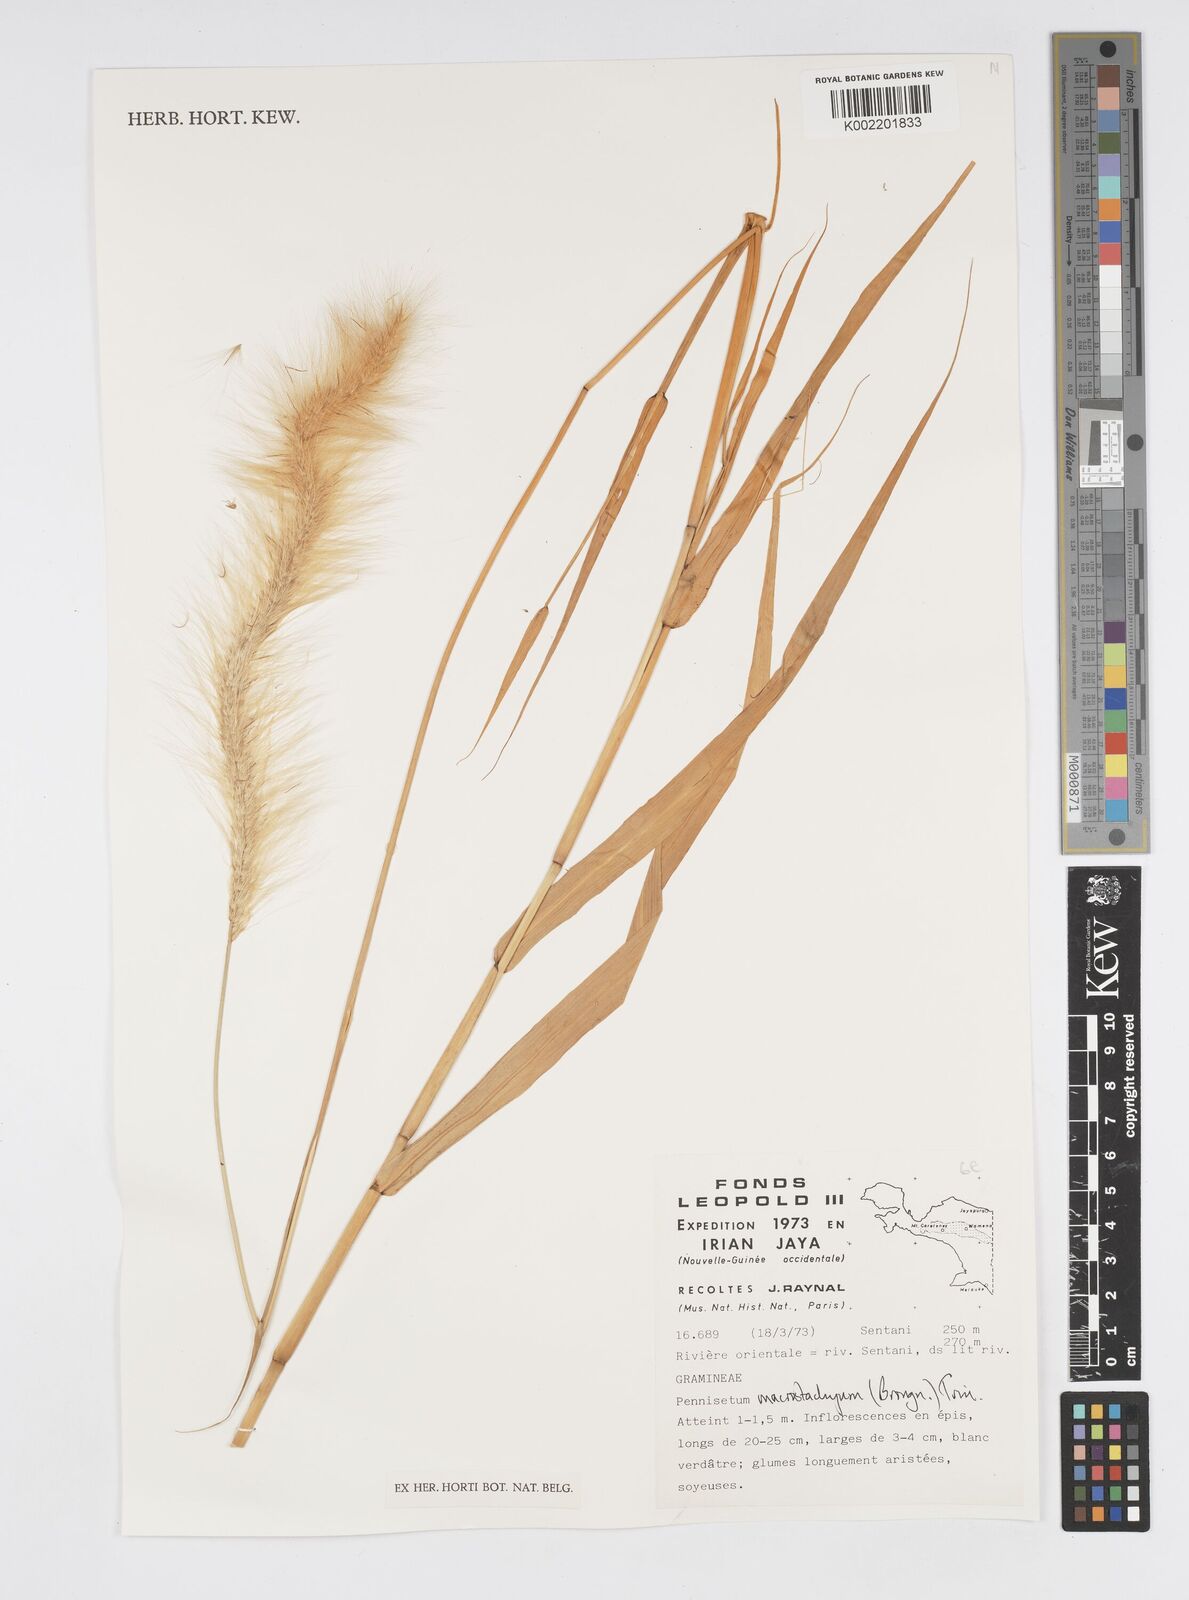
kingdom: Plantae
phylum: Tracheophyta
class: Liliopsida
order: Poales
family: Poaceae
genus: Cenchrus
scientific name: Cenchrus purpureus
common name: Elephant grass
